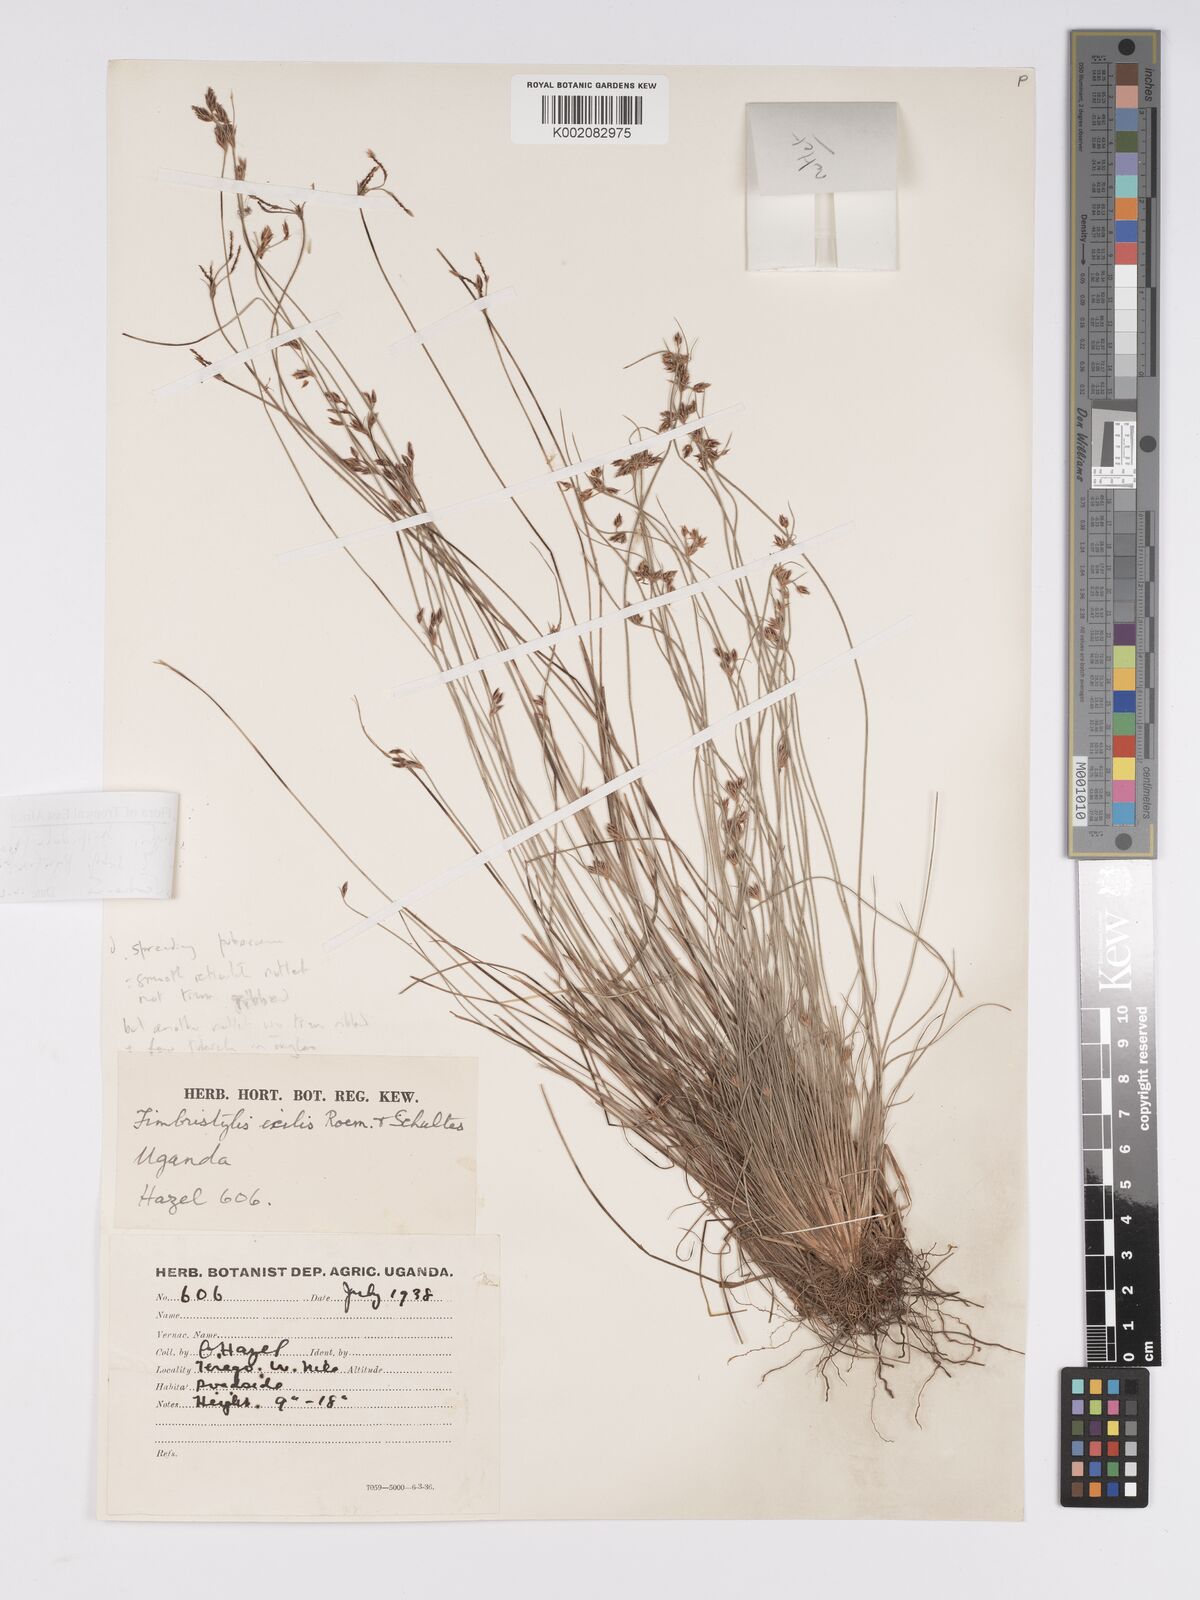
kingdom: Plantae
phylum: Tracheophyta
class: Liliopsida
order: Poales
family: Cyperaceae
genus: Bulbostylis
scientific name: Bulbostylis hispidula
